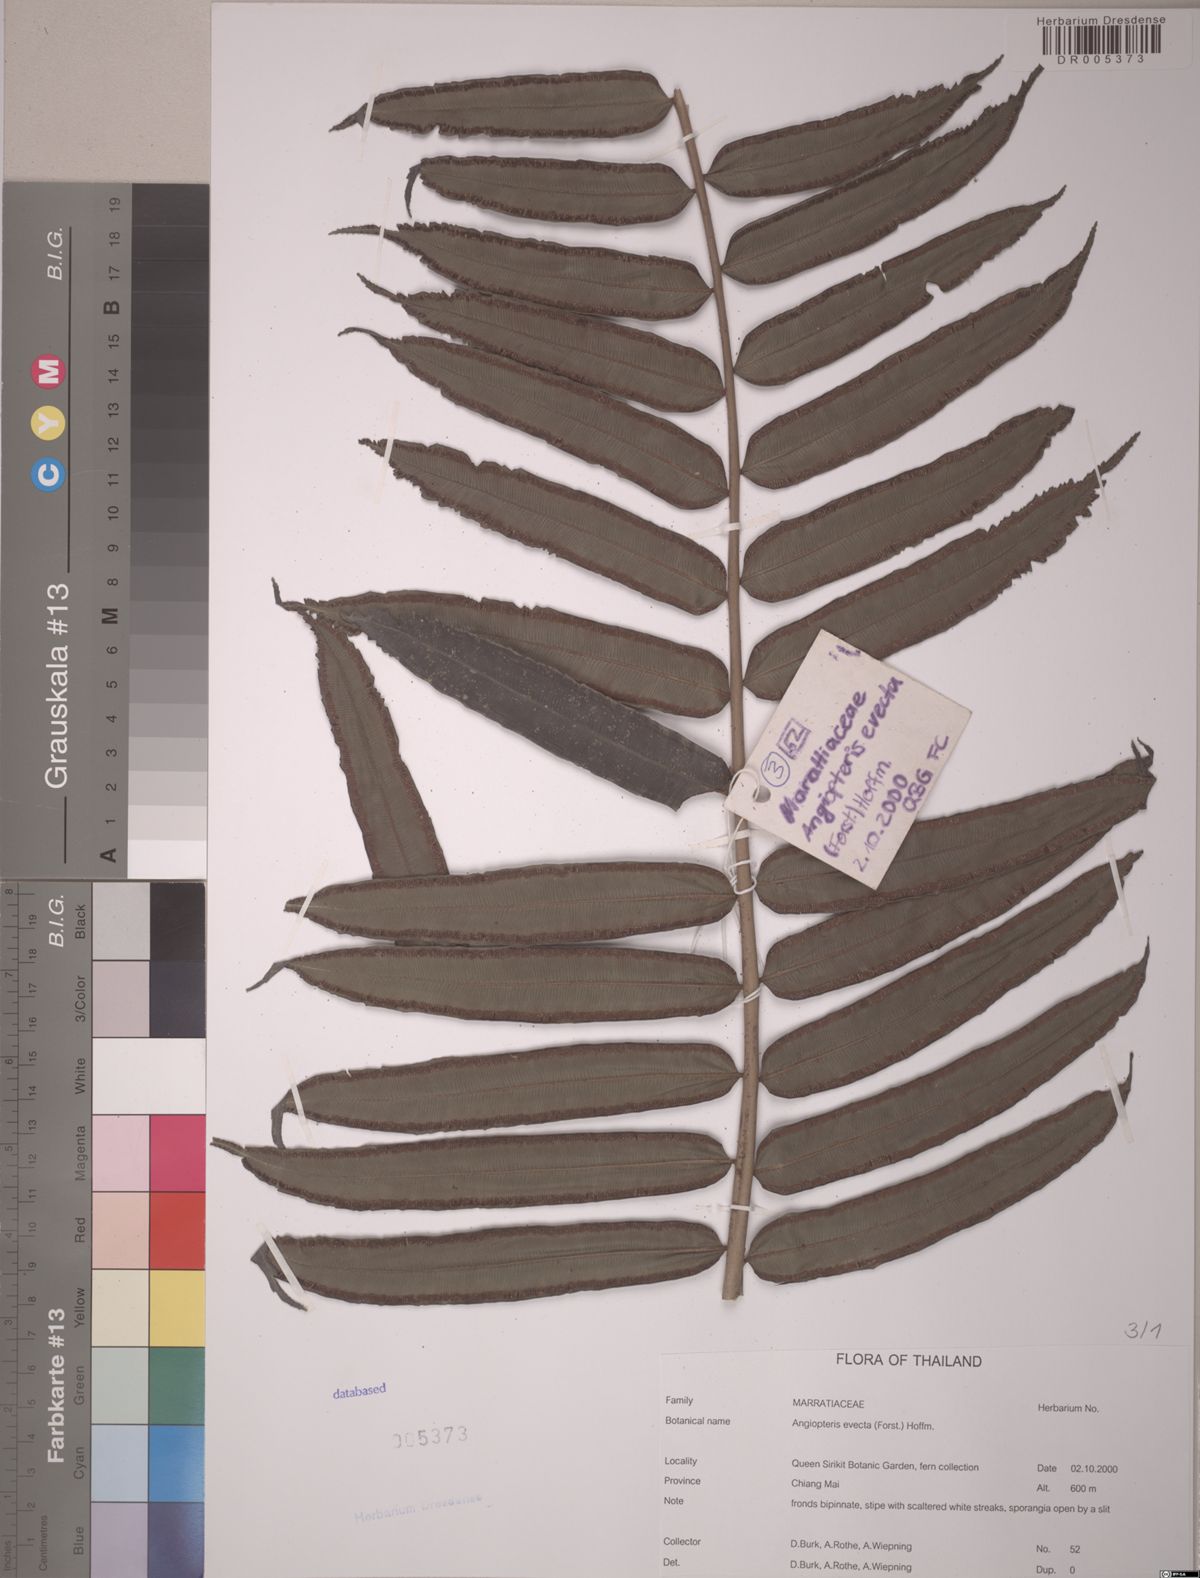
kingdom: Plantae
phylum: Tracheophyta
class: Polypodiopsida
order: Marattiales
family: Marattiaceae
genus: Angiopteris
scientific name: Angiopteris evecta
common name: Mule's-foot fern
